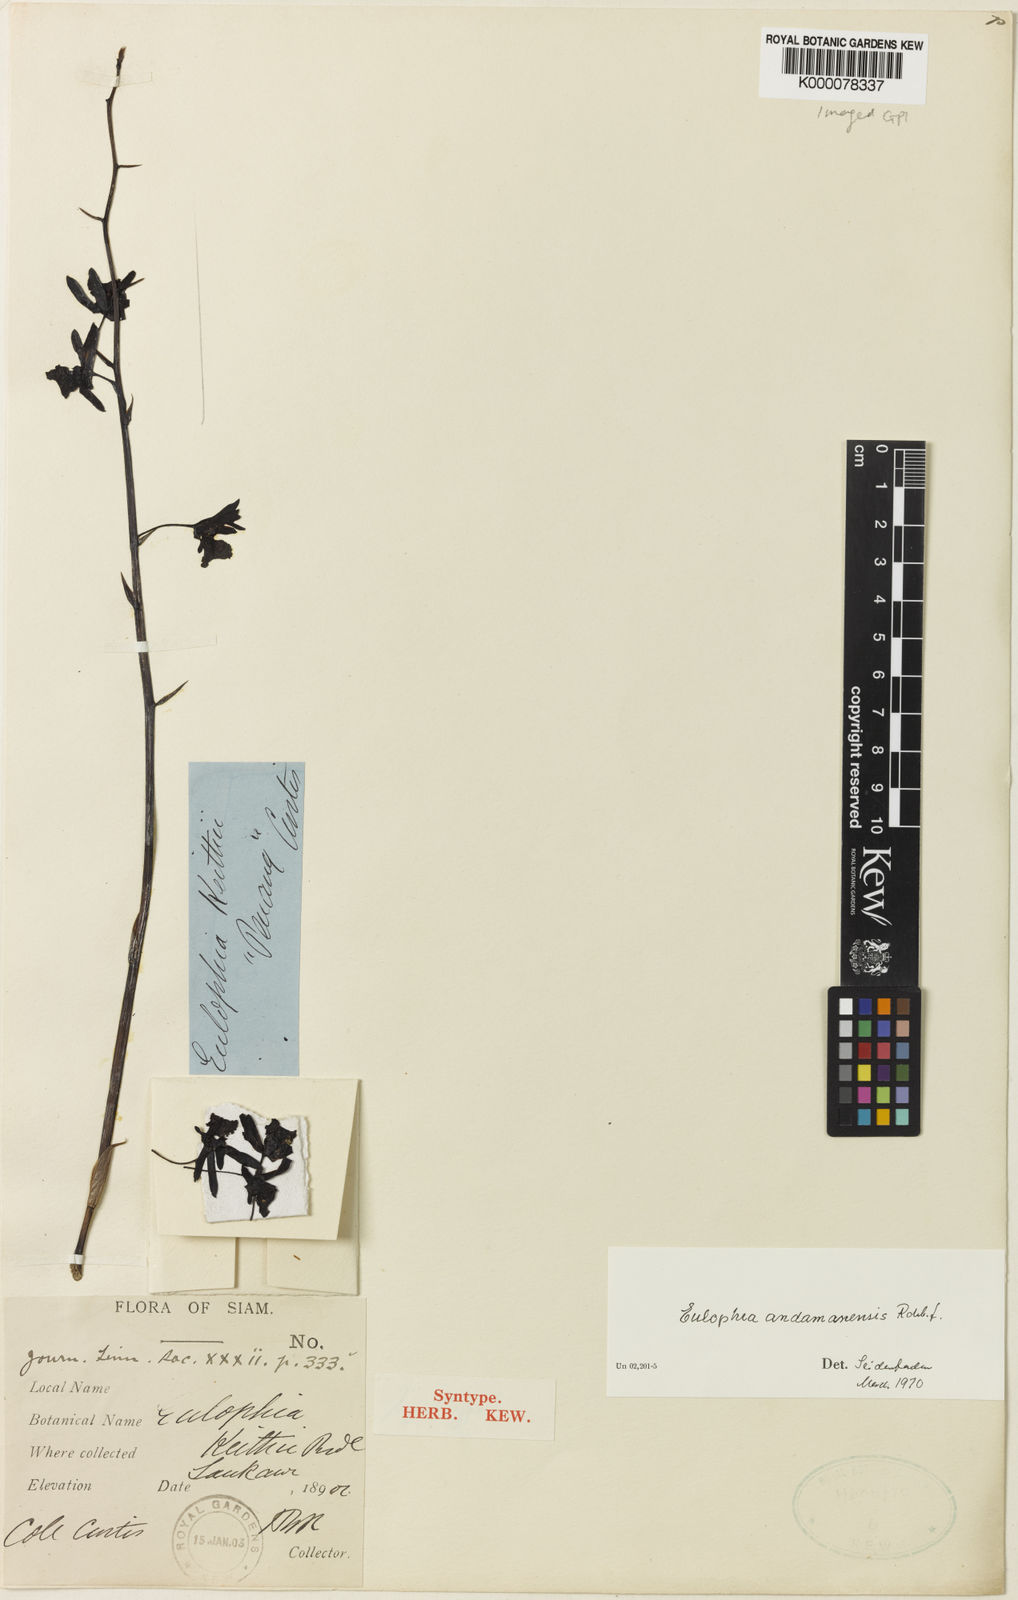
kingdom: Plantae
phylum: Tracheophyta
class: Liliopsida
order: Asparagales
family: Orchidaceae
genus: Eulophia
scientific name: Eulophia andamanensis
